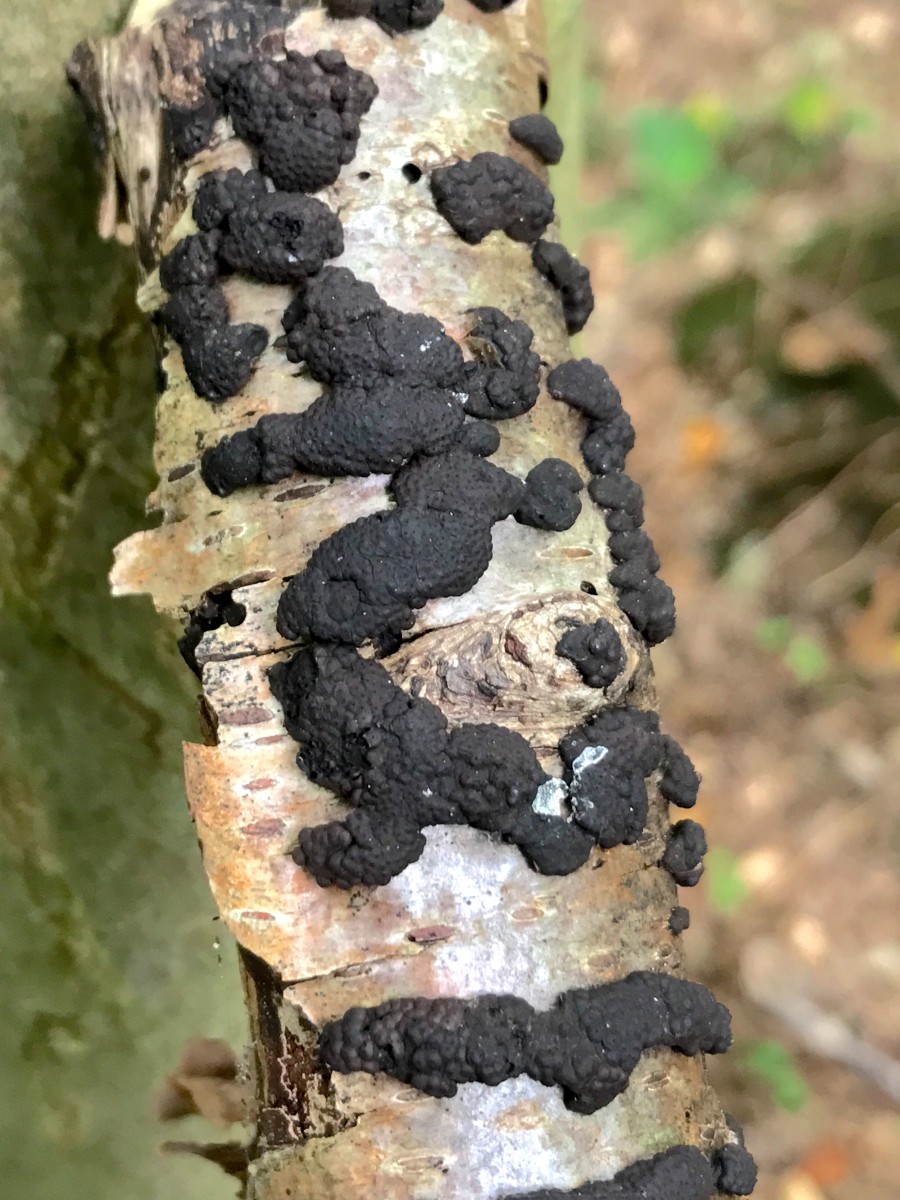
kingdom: Fungi
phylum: Ascomycota
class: Sordariomycetes
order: Xylariales
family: Hypoxylaceae
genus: Jackrogersella
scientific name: Jackrogersella multiformis
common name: foranderlig kulbær
